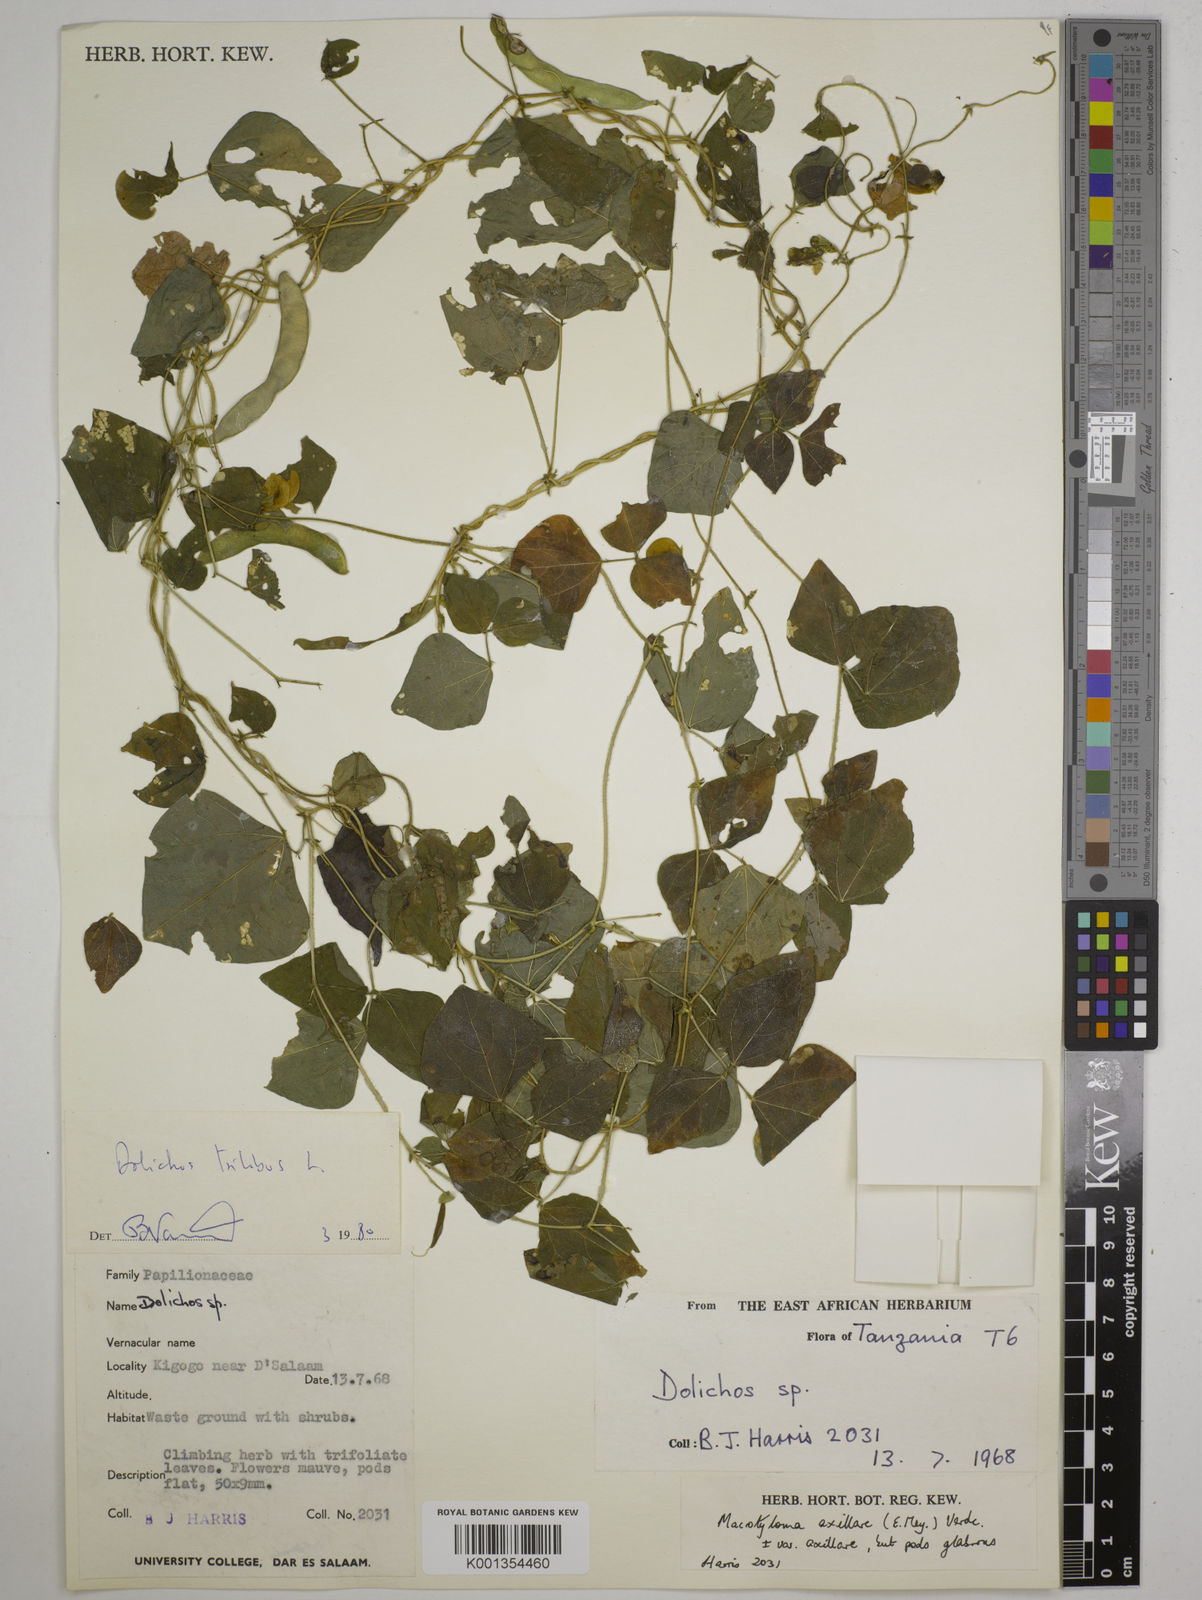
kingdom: Plantae
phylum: Tracheophyta
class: Magnoliopsida
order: Fabales
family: Fabaceae
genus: Dolichos
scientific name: Dolichos
